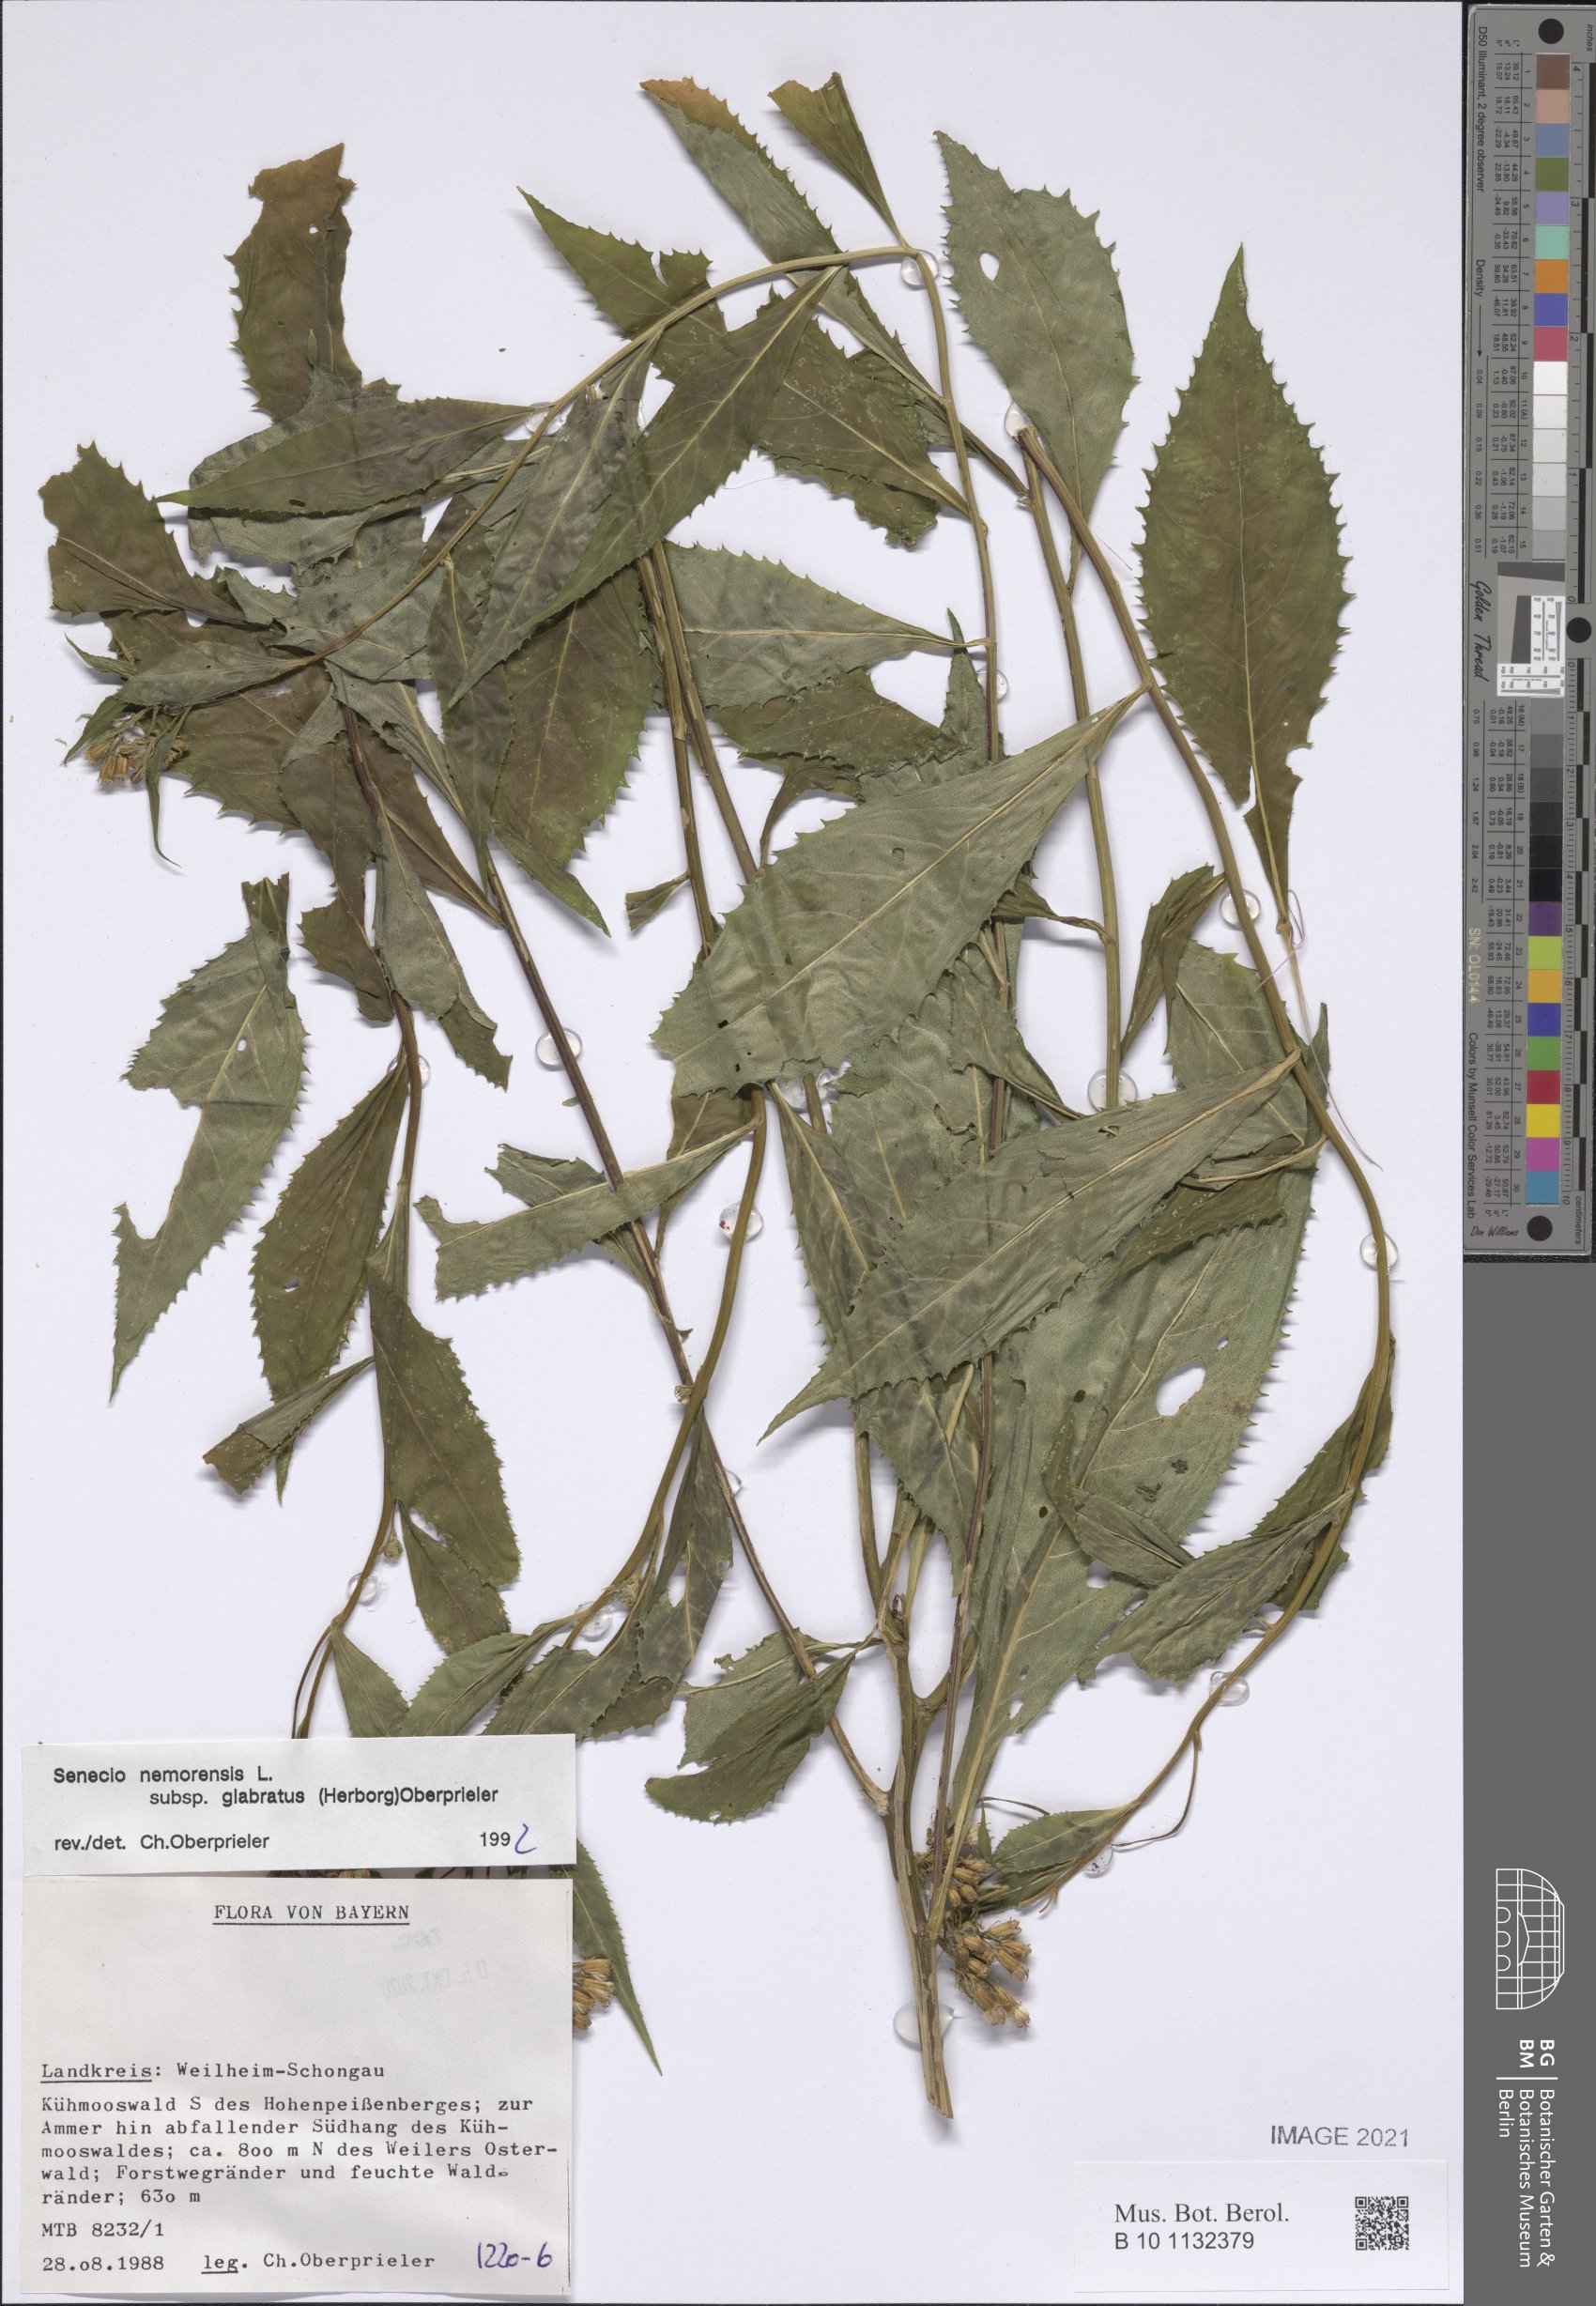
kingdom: Plantae
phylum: Tracheophyta
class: Magnoliopsida
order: Asterales
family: Asteraceae
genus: Senecio
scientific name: Senecio germanicus
